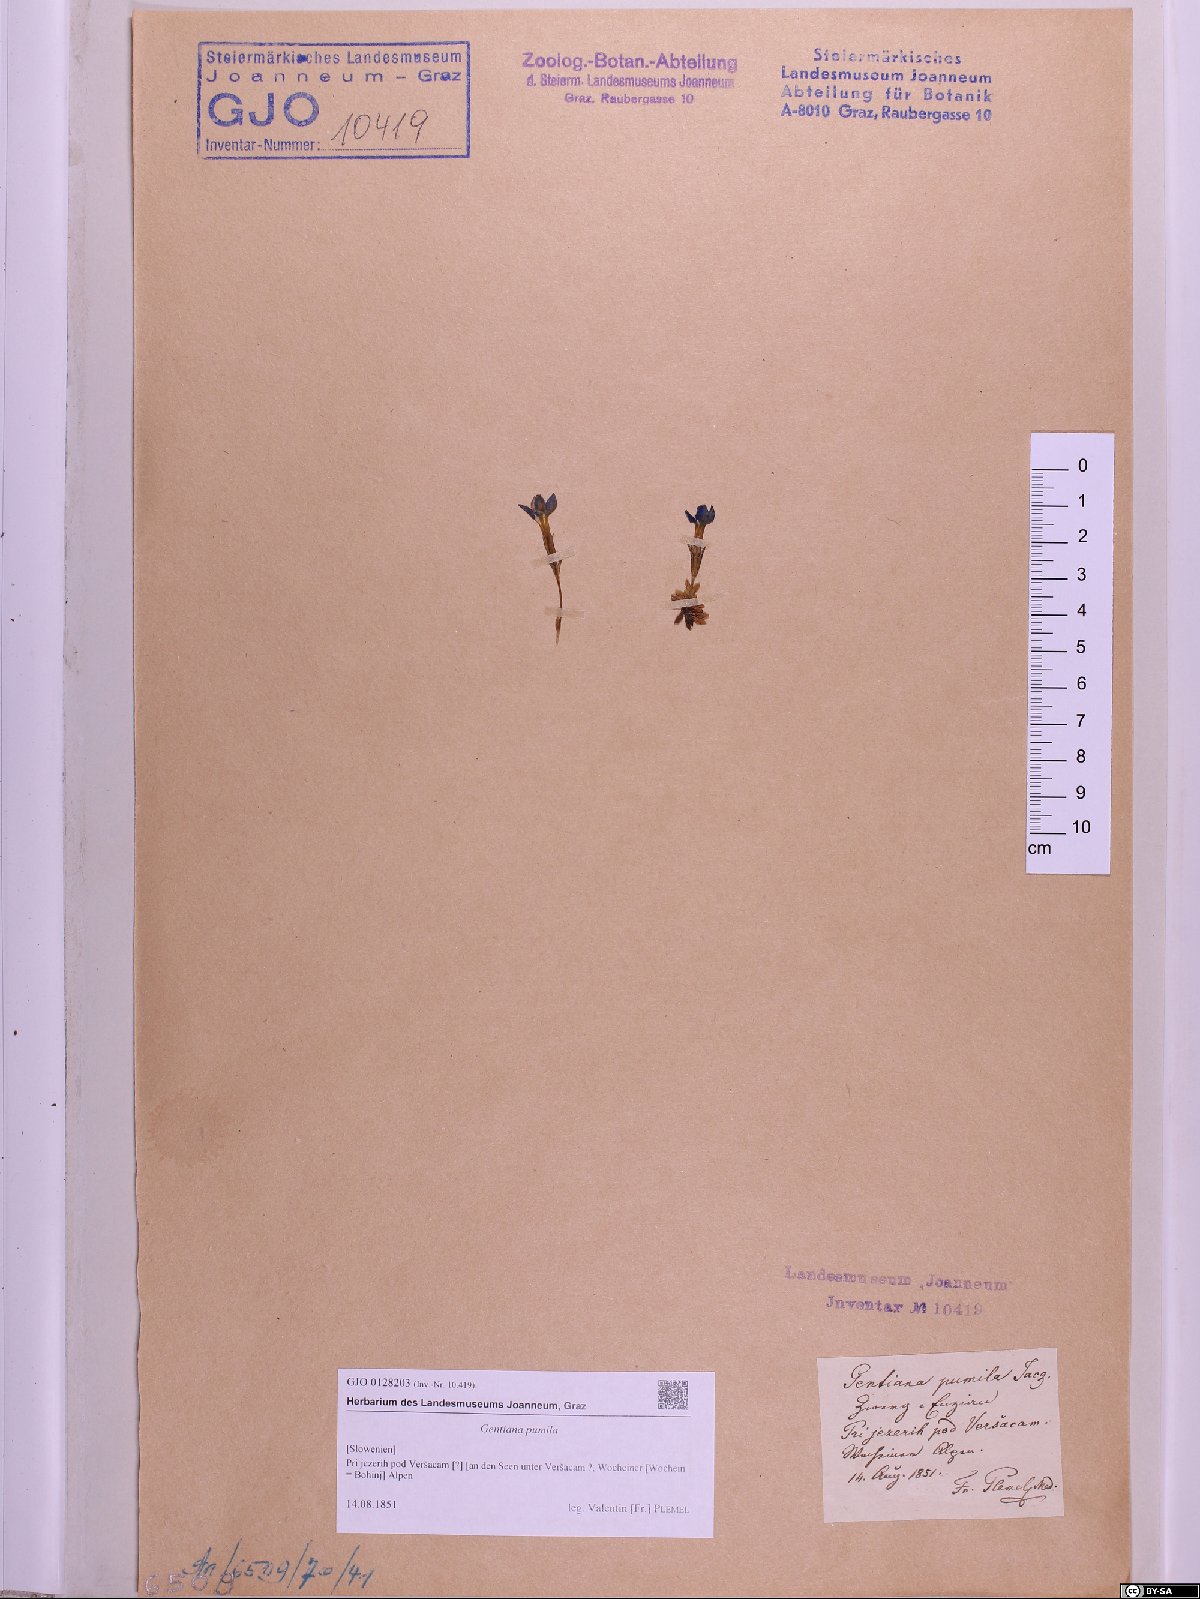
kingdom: Plantae
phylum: Tracheophyta
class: Magnoliopsida
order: Gentianales
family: Gentianaceae
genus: Gentiana
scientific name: Gentiana pumila
